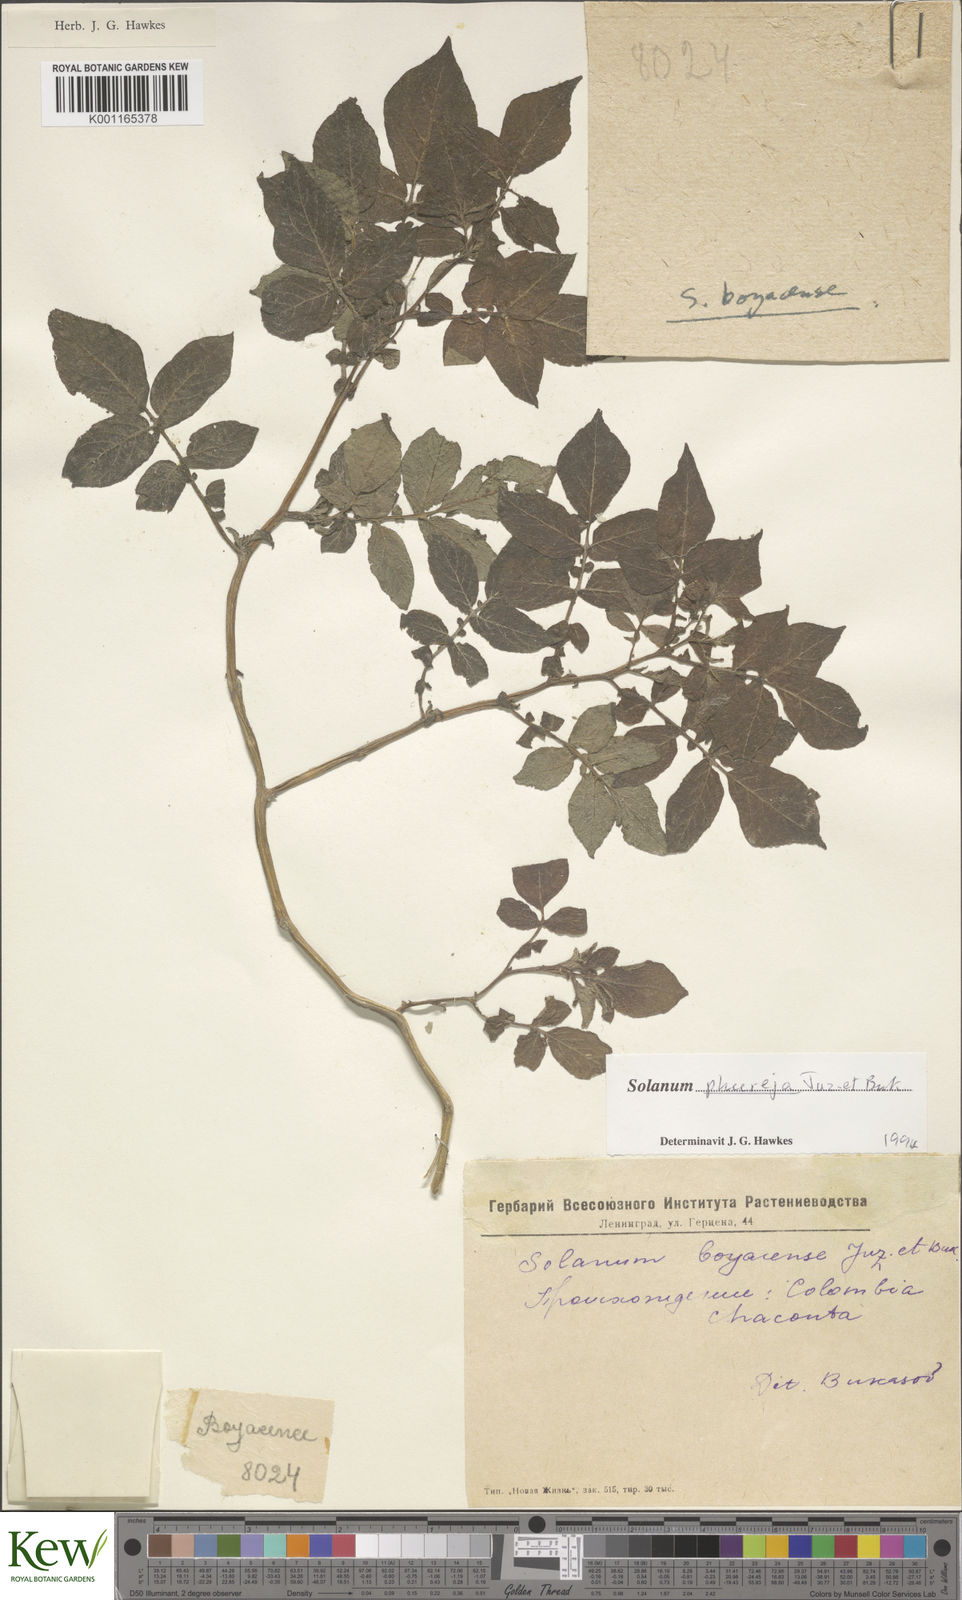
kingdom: Plantae
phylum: Tracheophyta
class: Magnoliopsida
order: Solanales
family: Solanaceae
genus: Solanum
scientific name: Solanum tuberosum
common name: Potato
